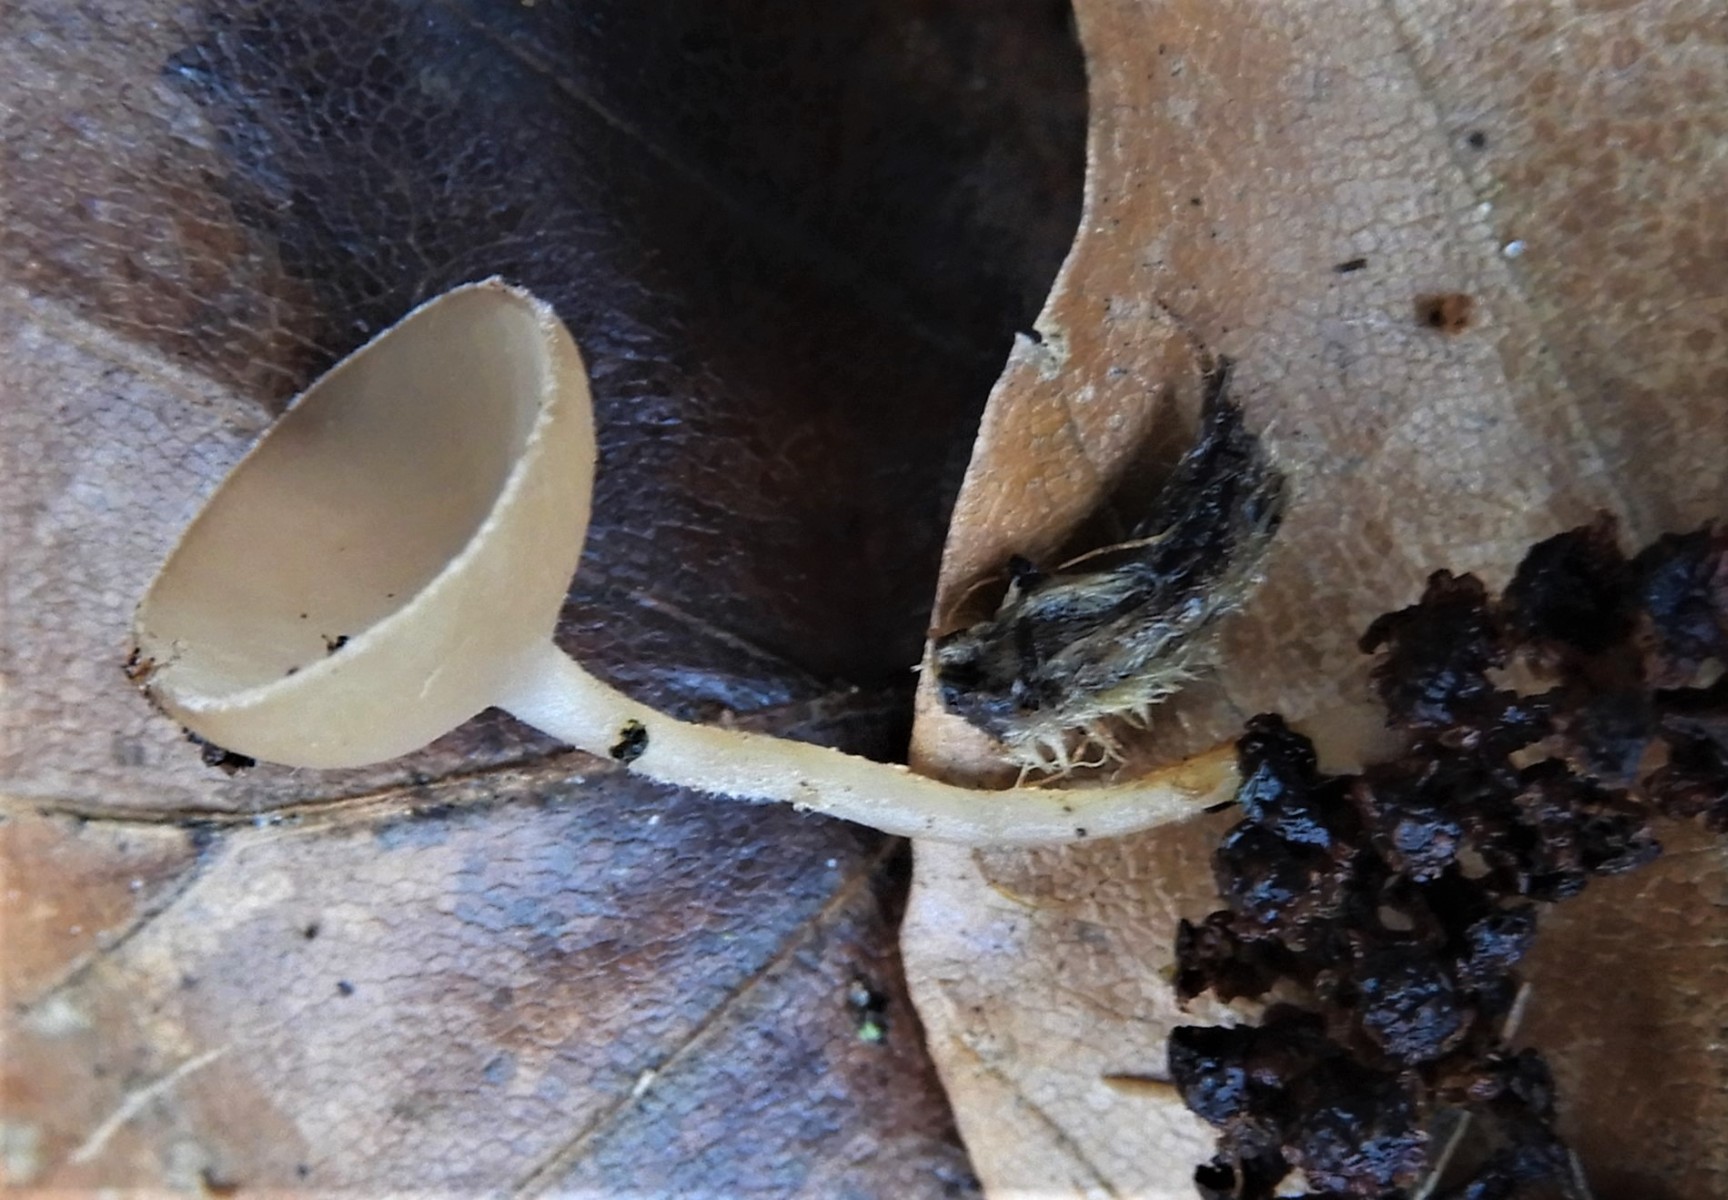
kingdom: Fungi
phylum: Ascomycota
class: Leotiomycetes
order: Helotiales
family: Sclerotiniaceae
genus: Ciboria
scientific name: Ciboria amentacea
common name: ellerakle-knoldskive
